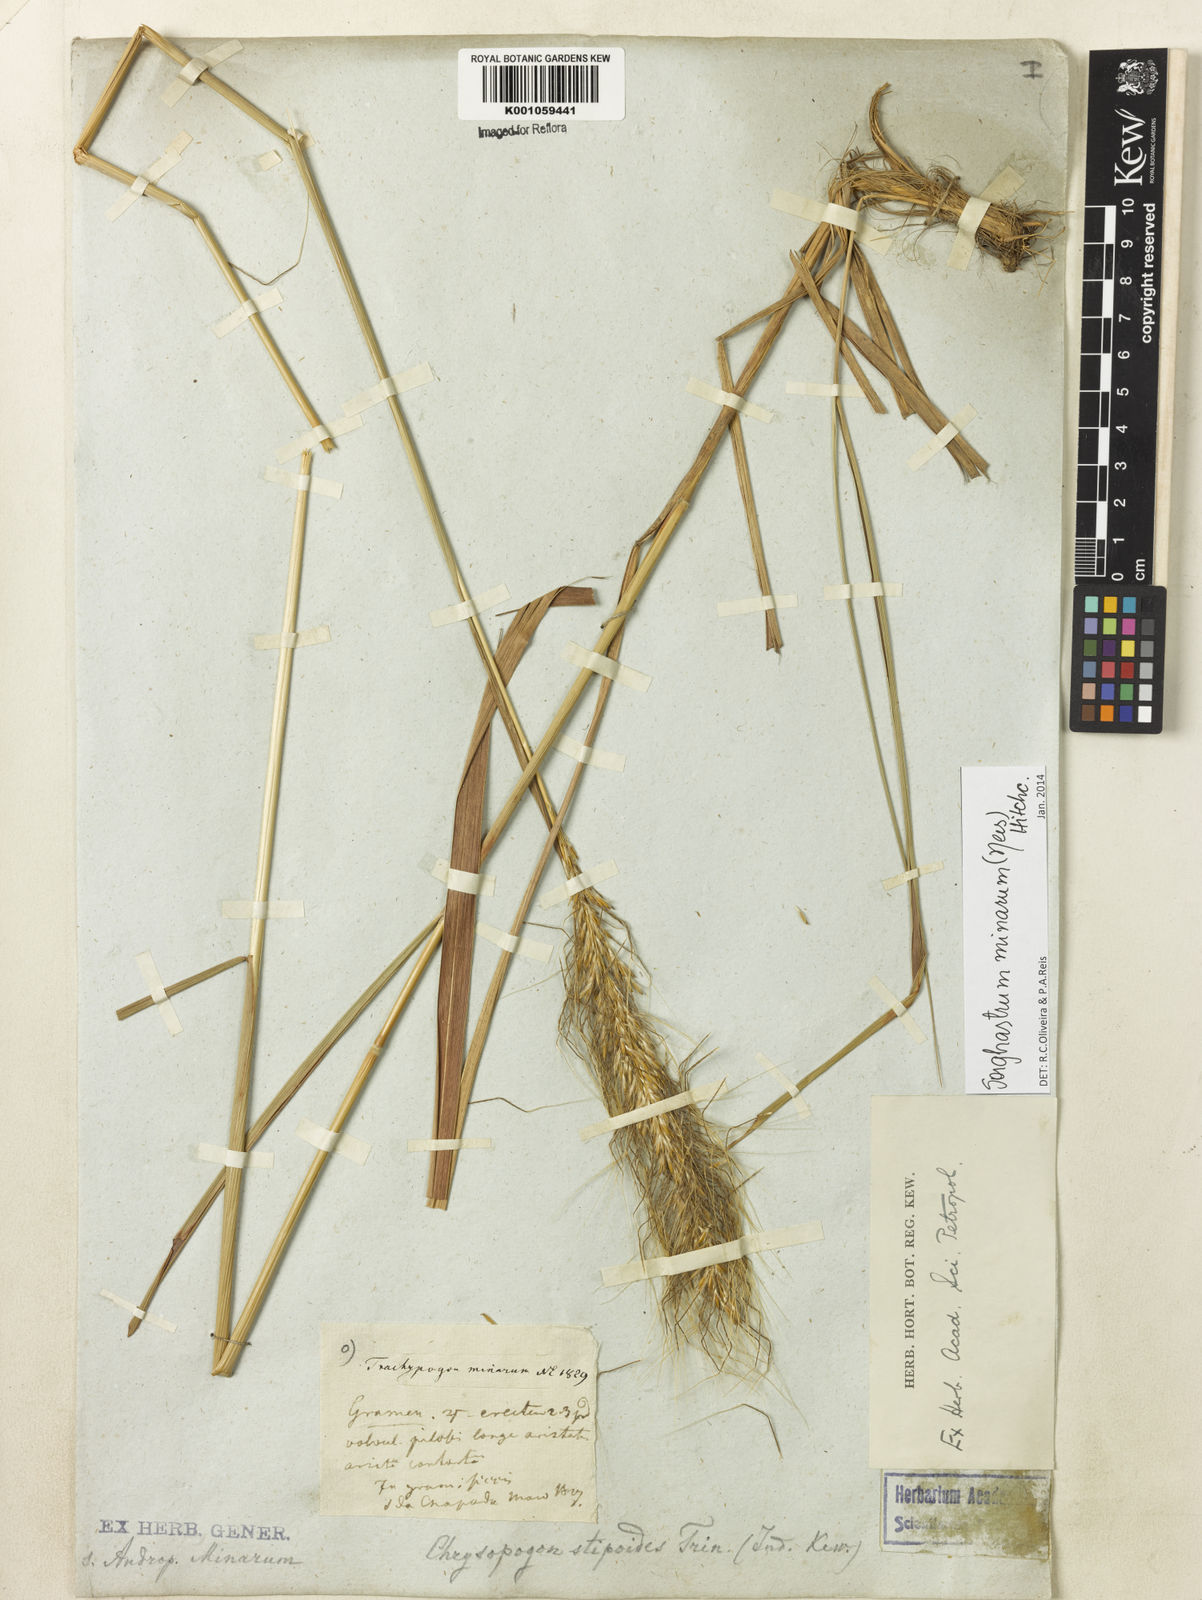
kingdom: Plantae
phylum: Tracheophyta
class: Liliopsida
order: Poales
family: Poaceae
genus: Sorghastrum
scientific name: Sorghastrum minarum
